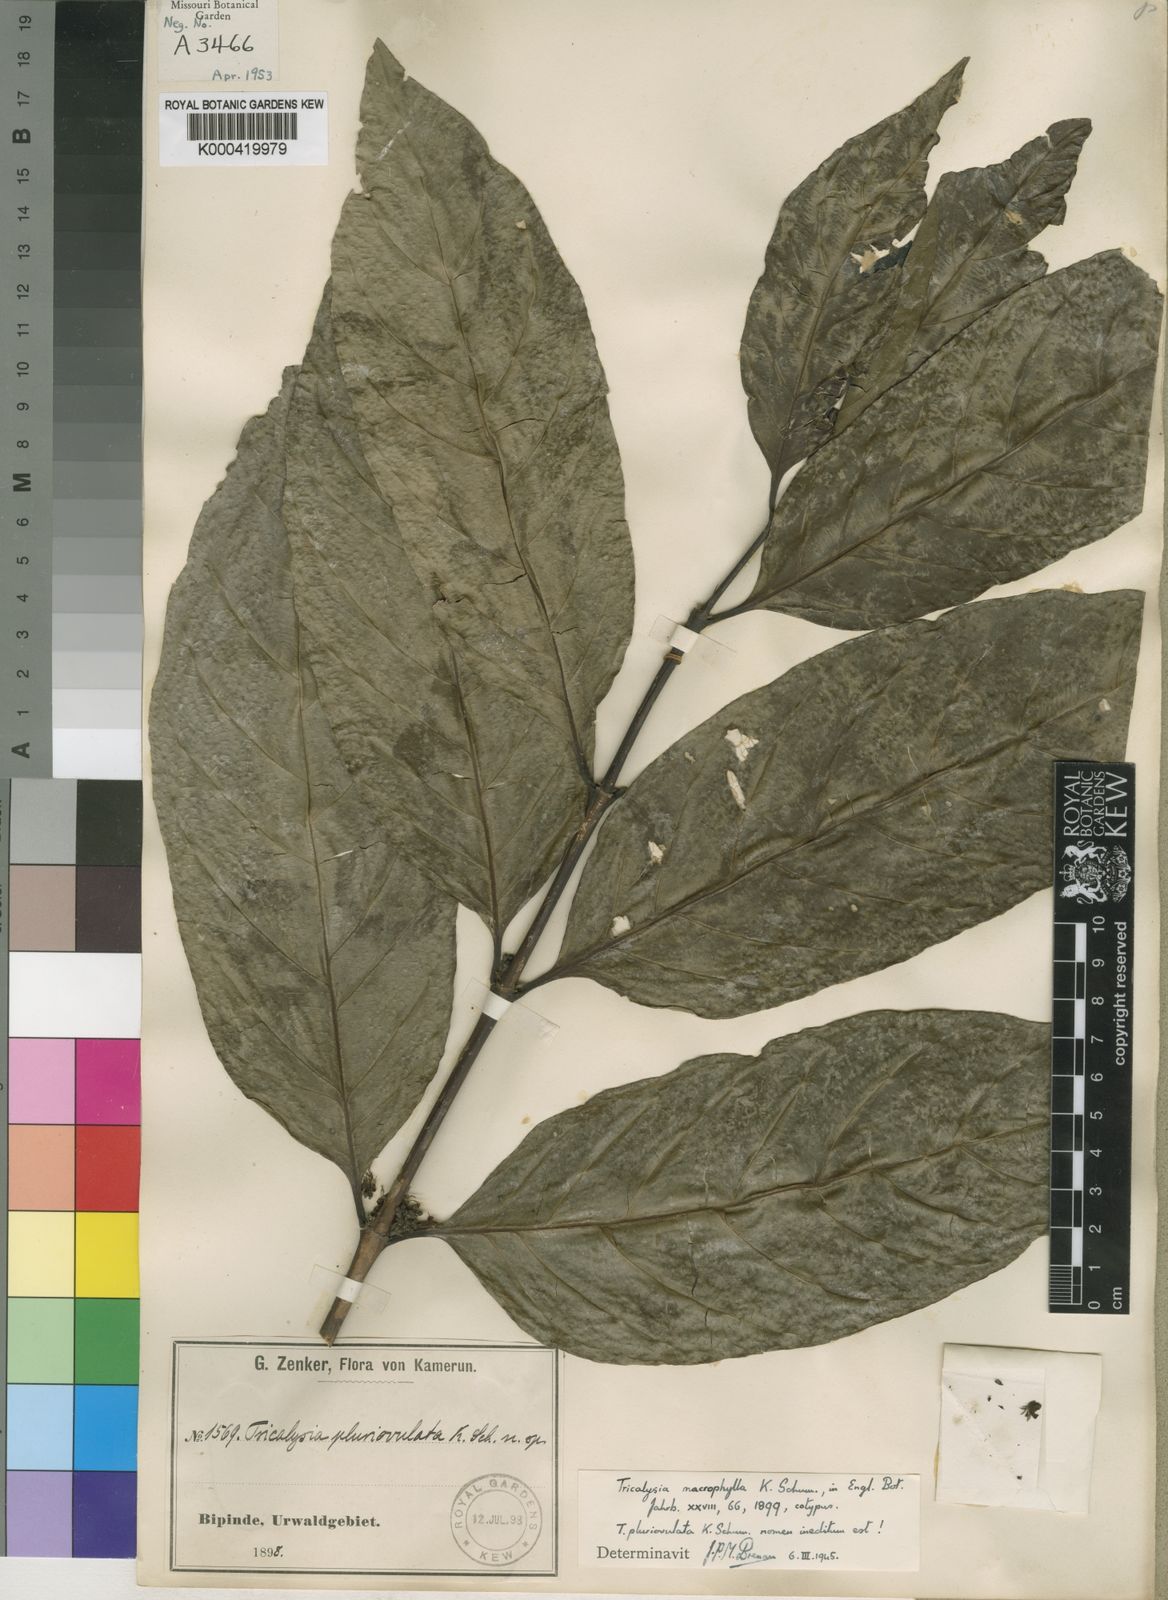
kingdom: Plantae
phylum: Tracheophyta
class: Magnoliopsida
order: Gentianales
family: Rubiaceae
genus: Empogona
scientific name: Empogona macrophylla
